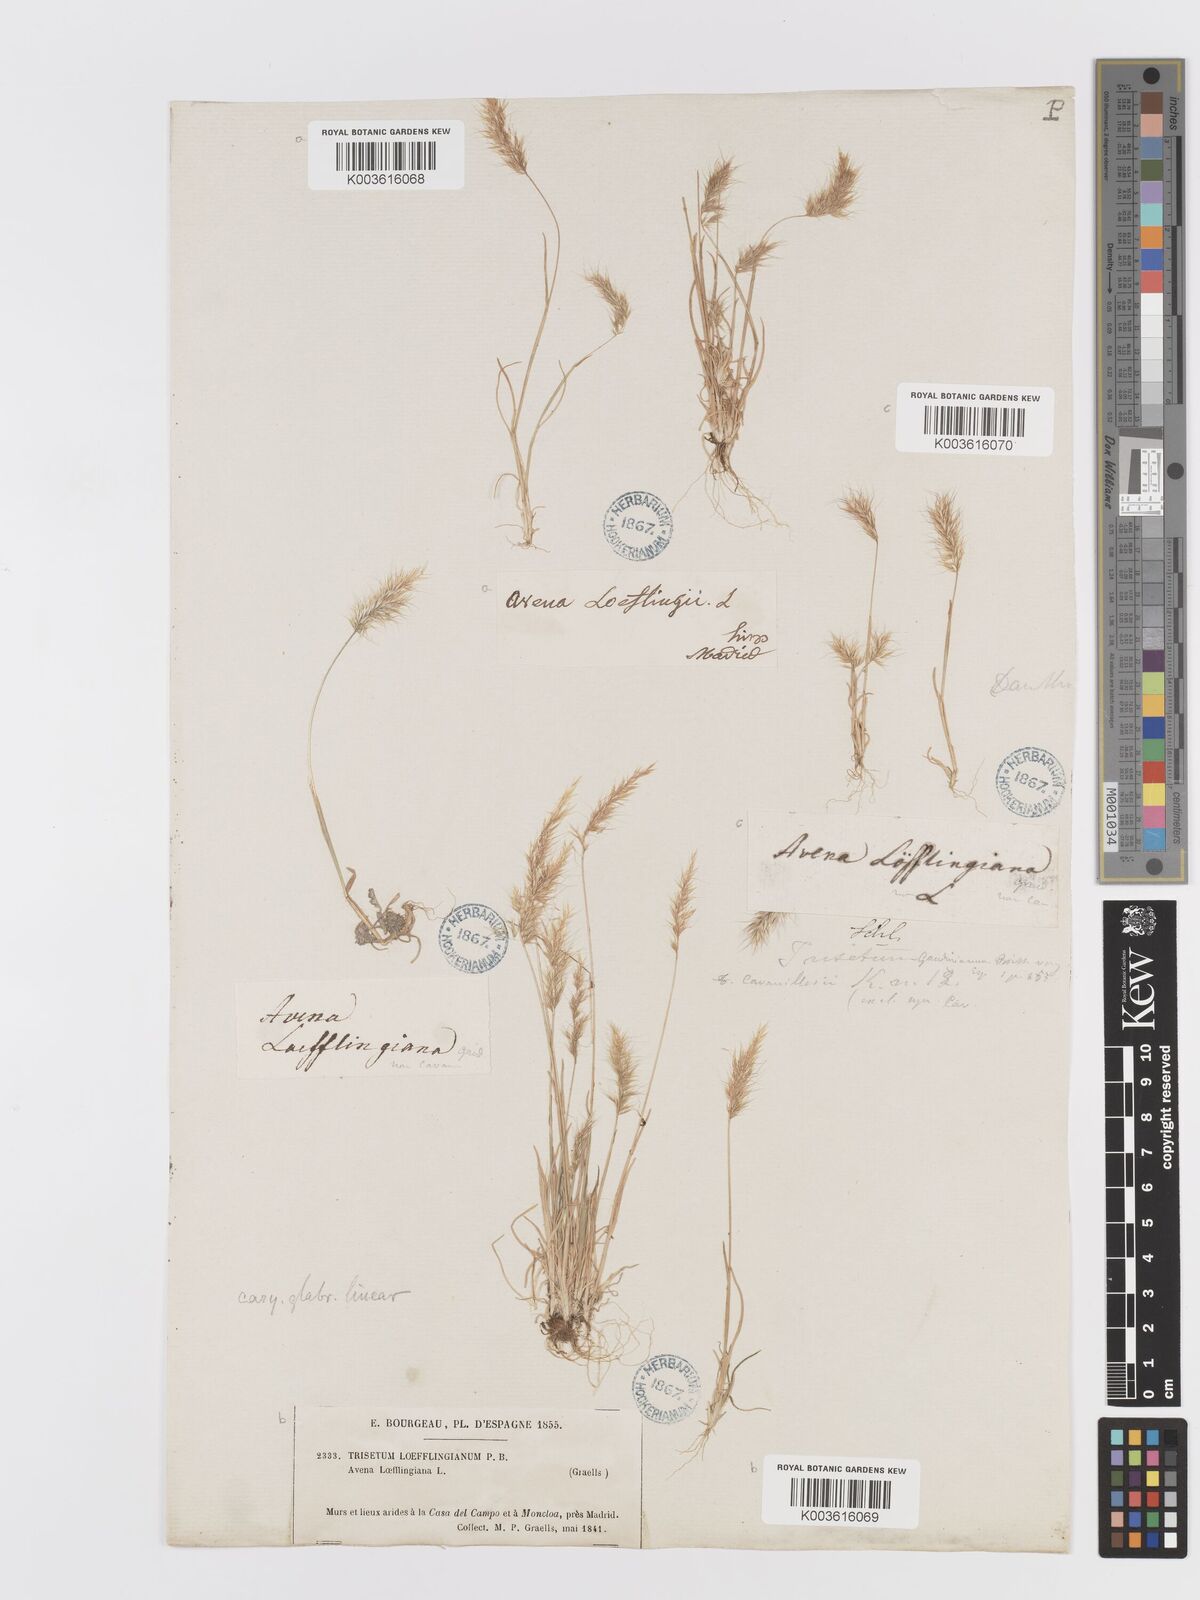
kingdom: Plantae
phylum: Tracheophyta
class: Liliopsida
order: Poales
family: Poaceae
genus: Trisetaria
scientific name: Trisetaria loeflingiana
